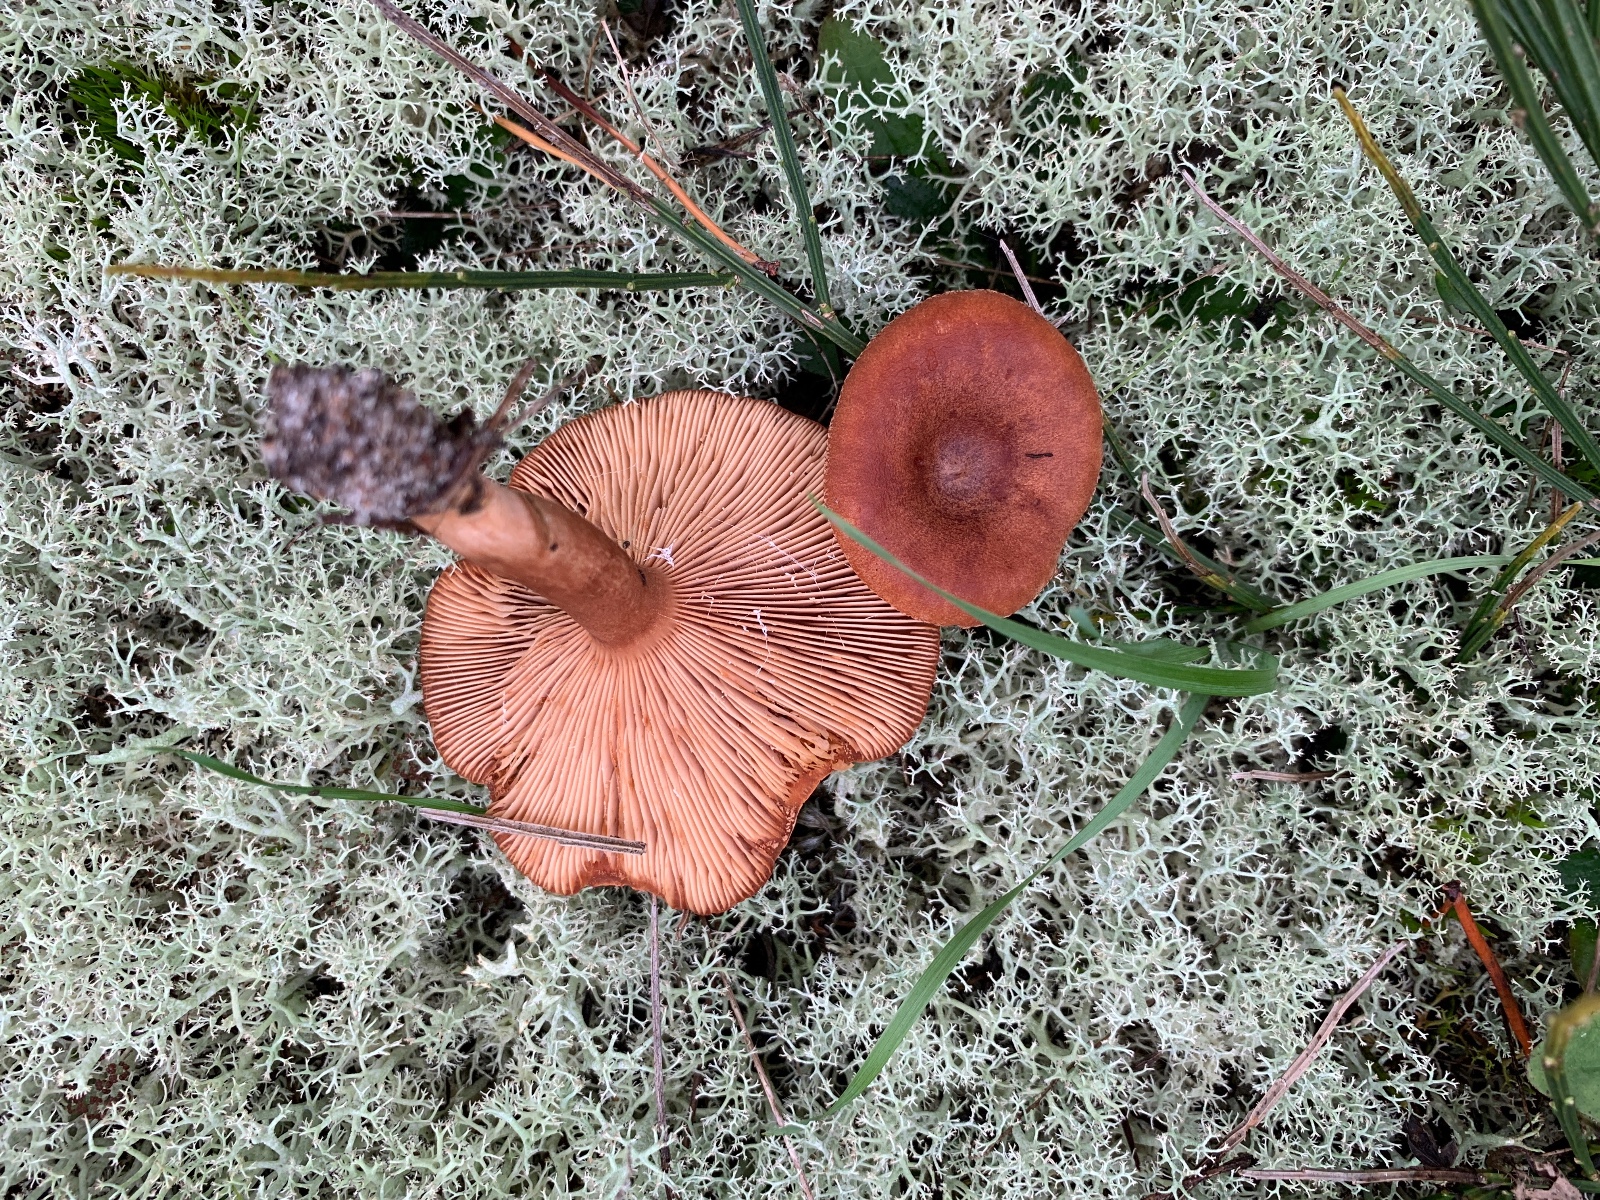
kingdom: Fungi
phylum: Basidiomycota
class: Agaricomycetes
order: Russulales
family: Russulaceae
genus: Lactarius
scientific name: Lactarius rufus
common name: rødbrun mælkehat
